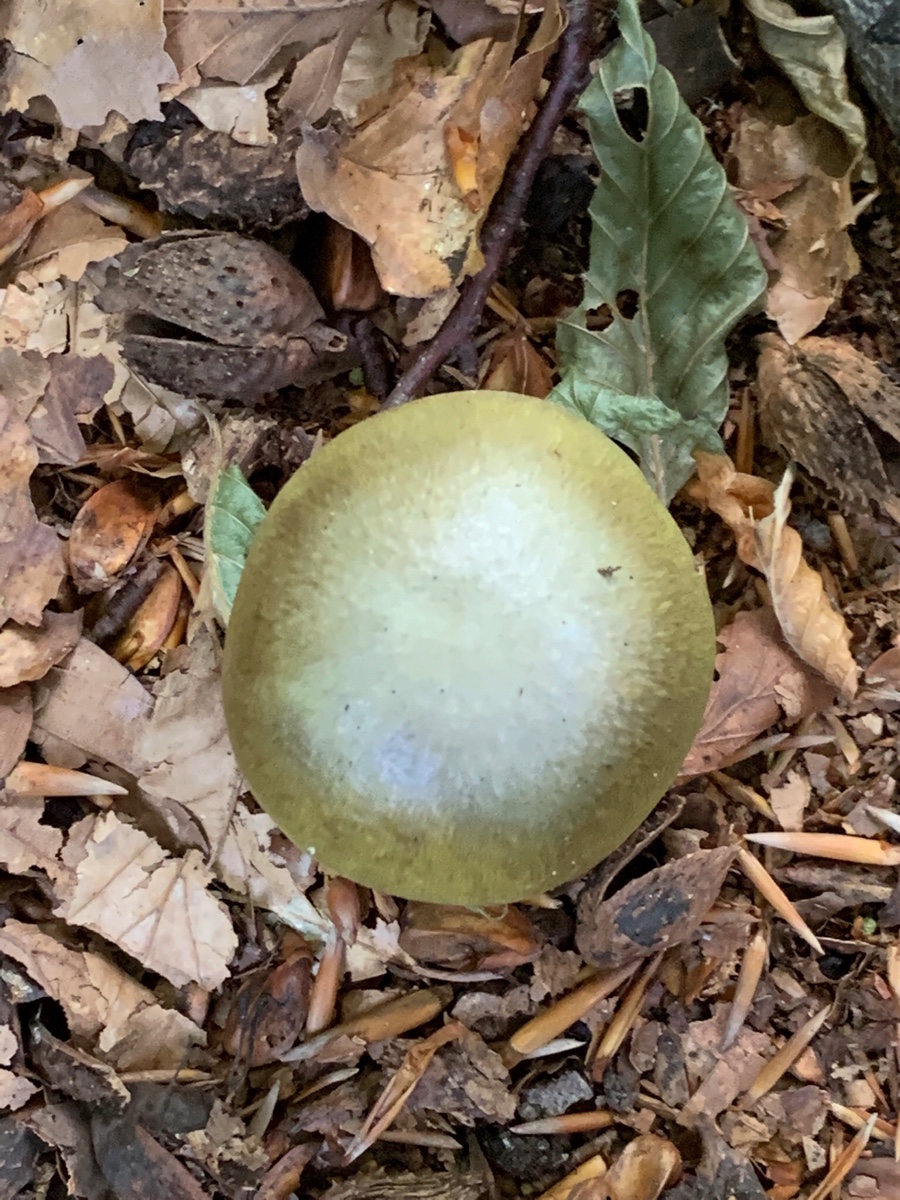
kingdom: Fungi
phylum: Basidiomycota
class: Agaricomycetes
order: Agaricales
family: Amanitaceae
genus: Amanita
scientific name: Amanita phalloides
